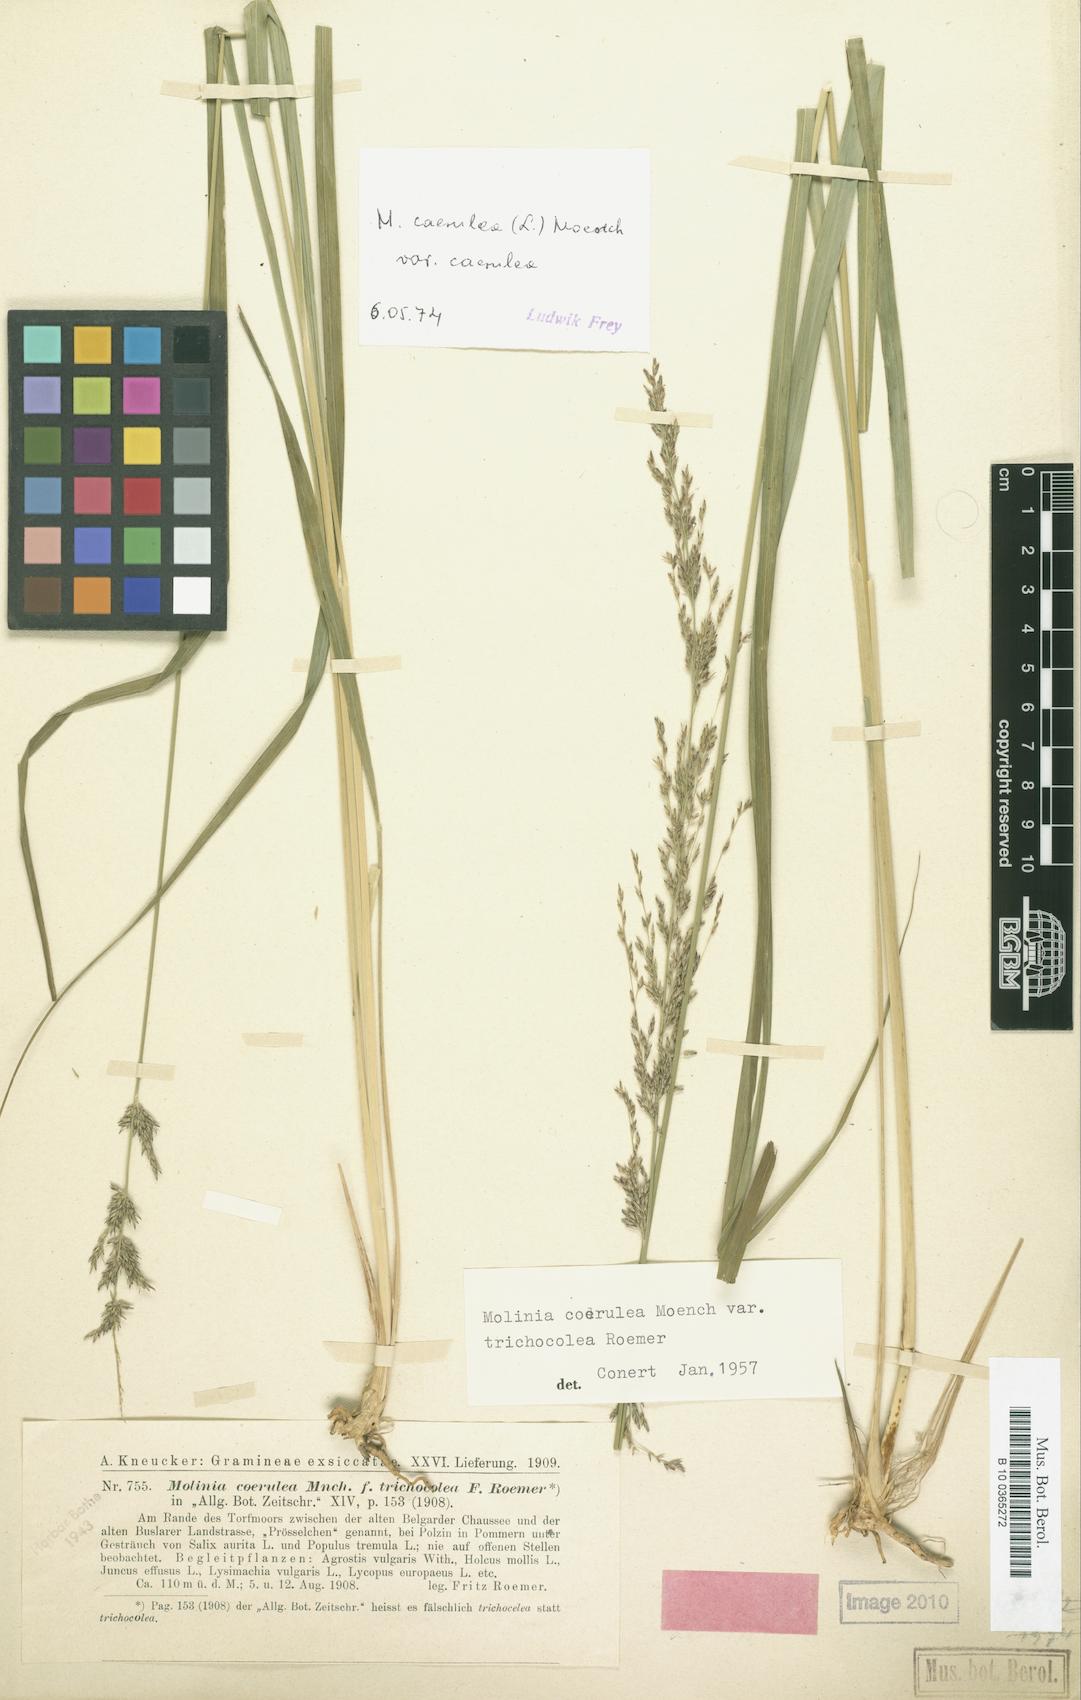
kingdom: Plantae
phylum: Tracheophyta
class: Liliopsida
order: Poales
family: Poaceae
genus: Molinia
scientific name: Molinia caerulea
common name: Purple moor-grass
